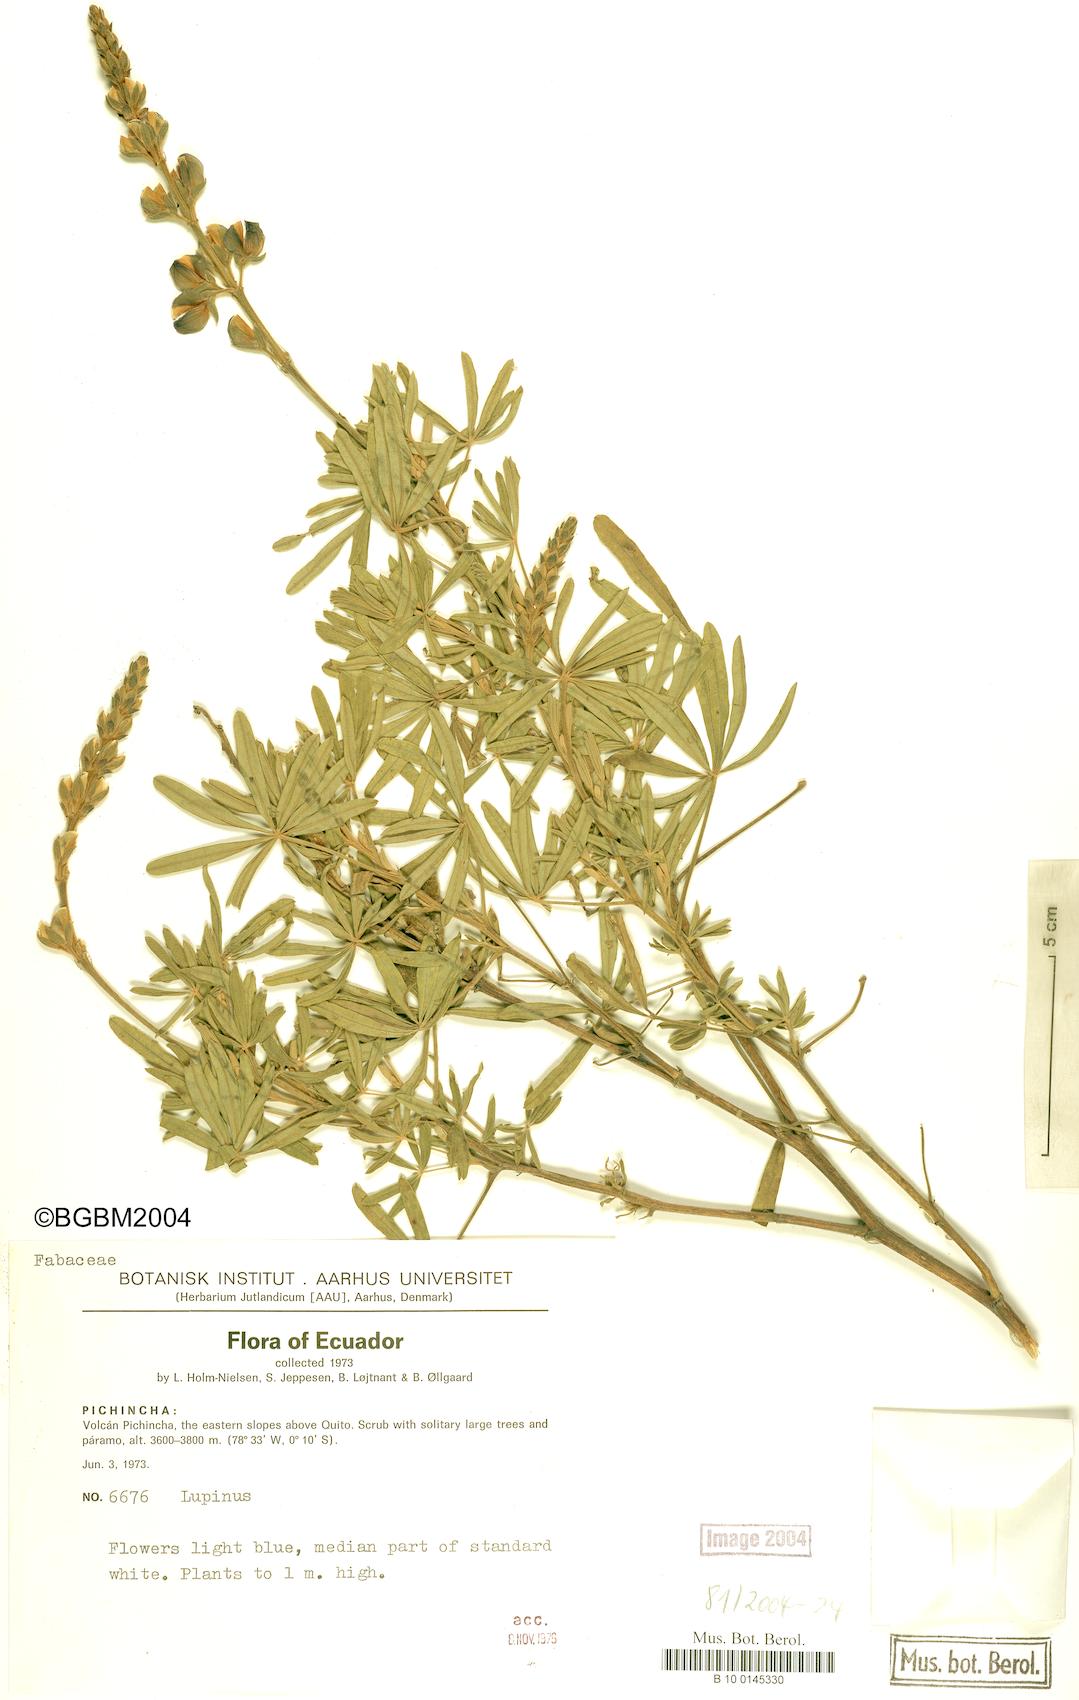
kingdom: Plantae
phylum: Tracheophyta
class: Magnoliopsida
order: Fabales
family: Fabaceae
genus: Lupinus
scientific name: Lupinus
